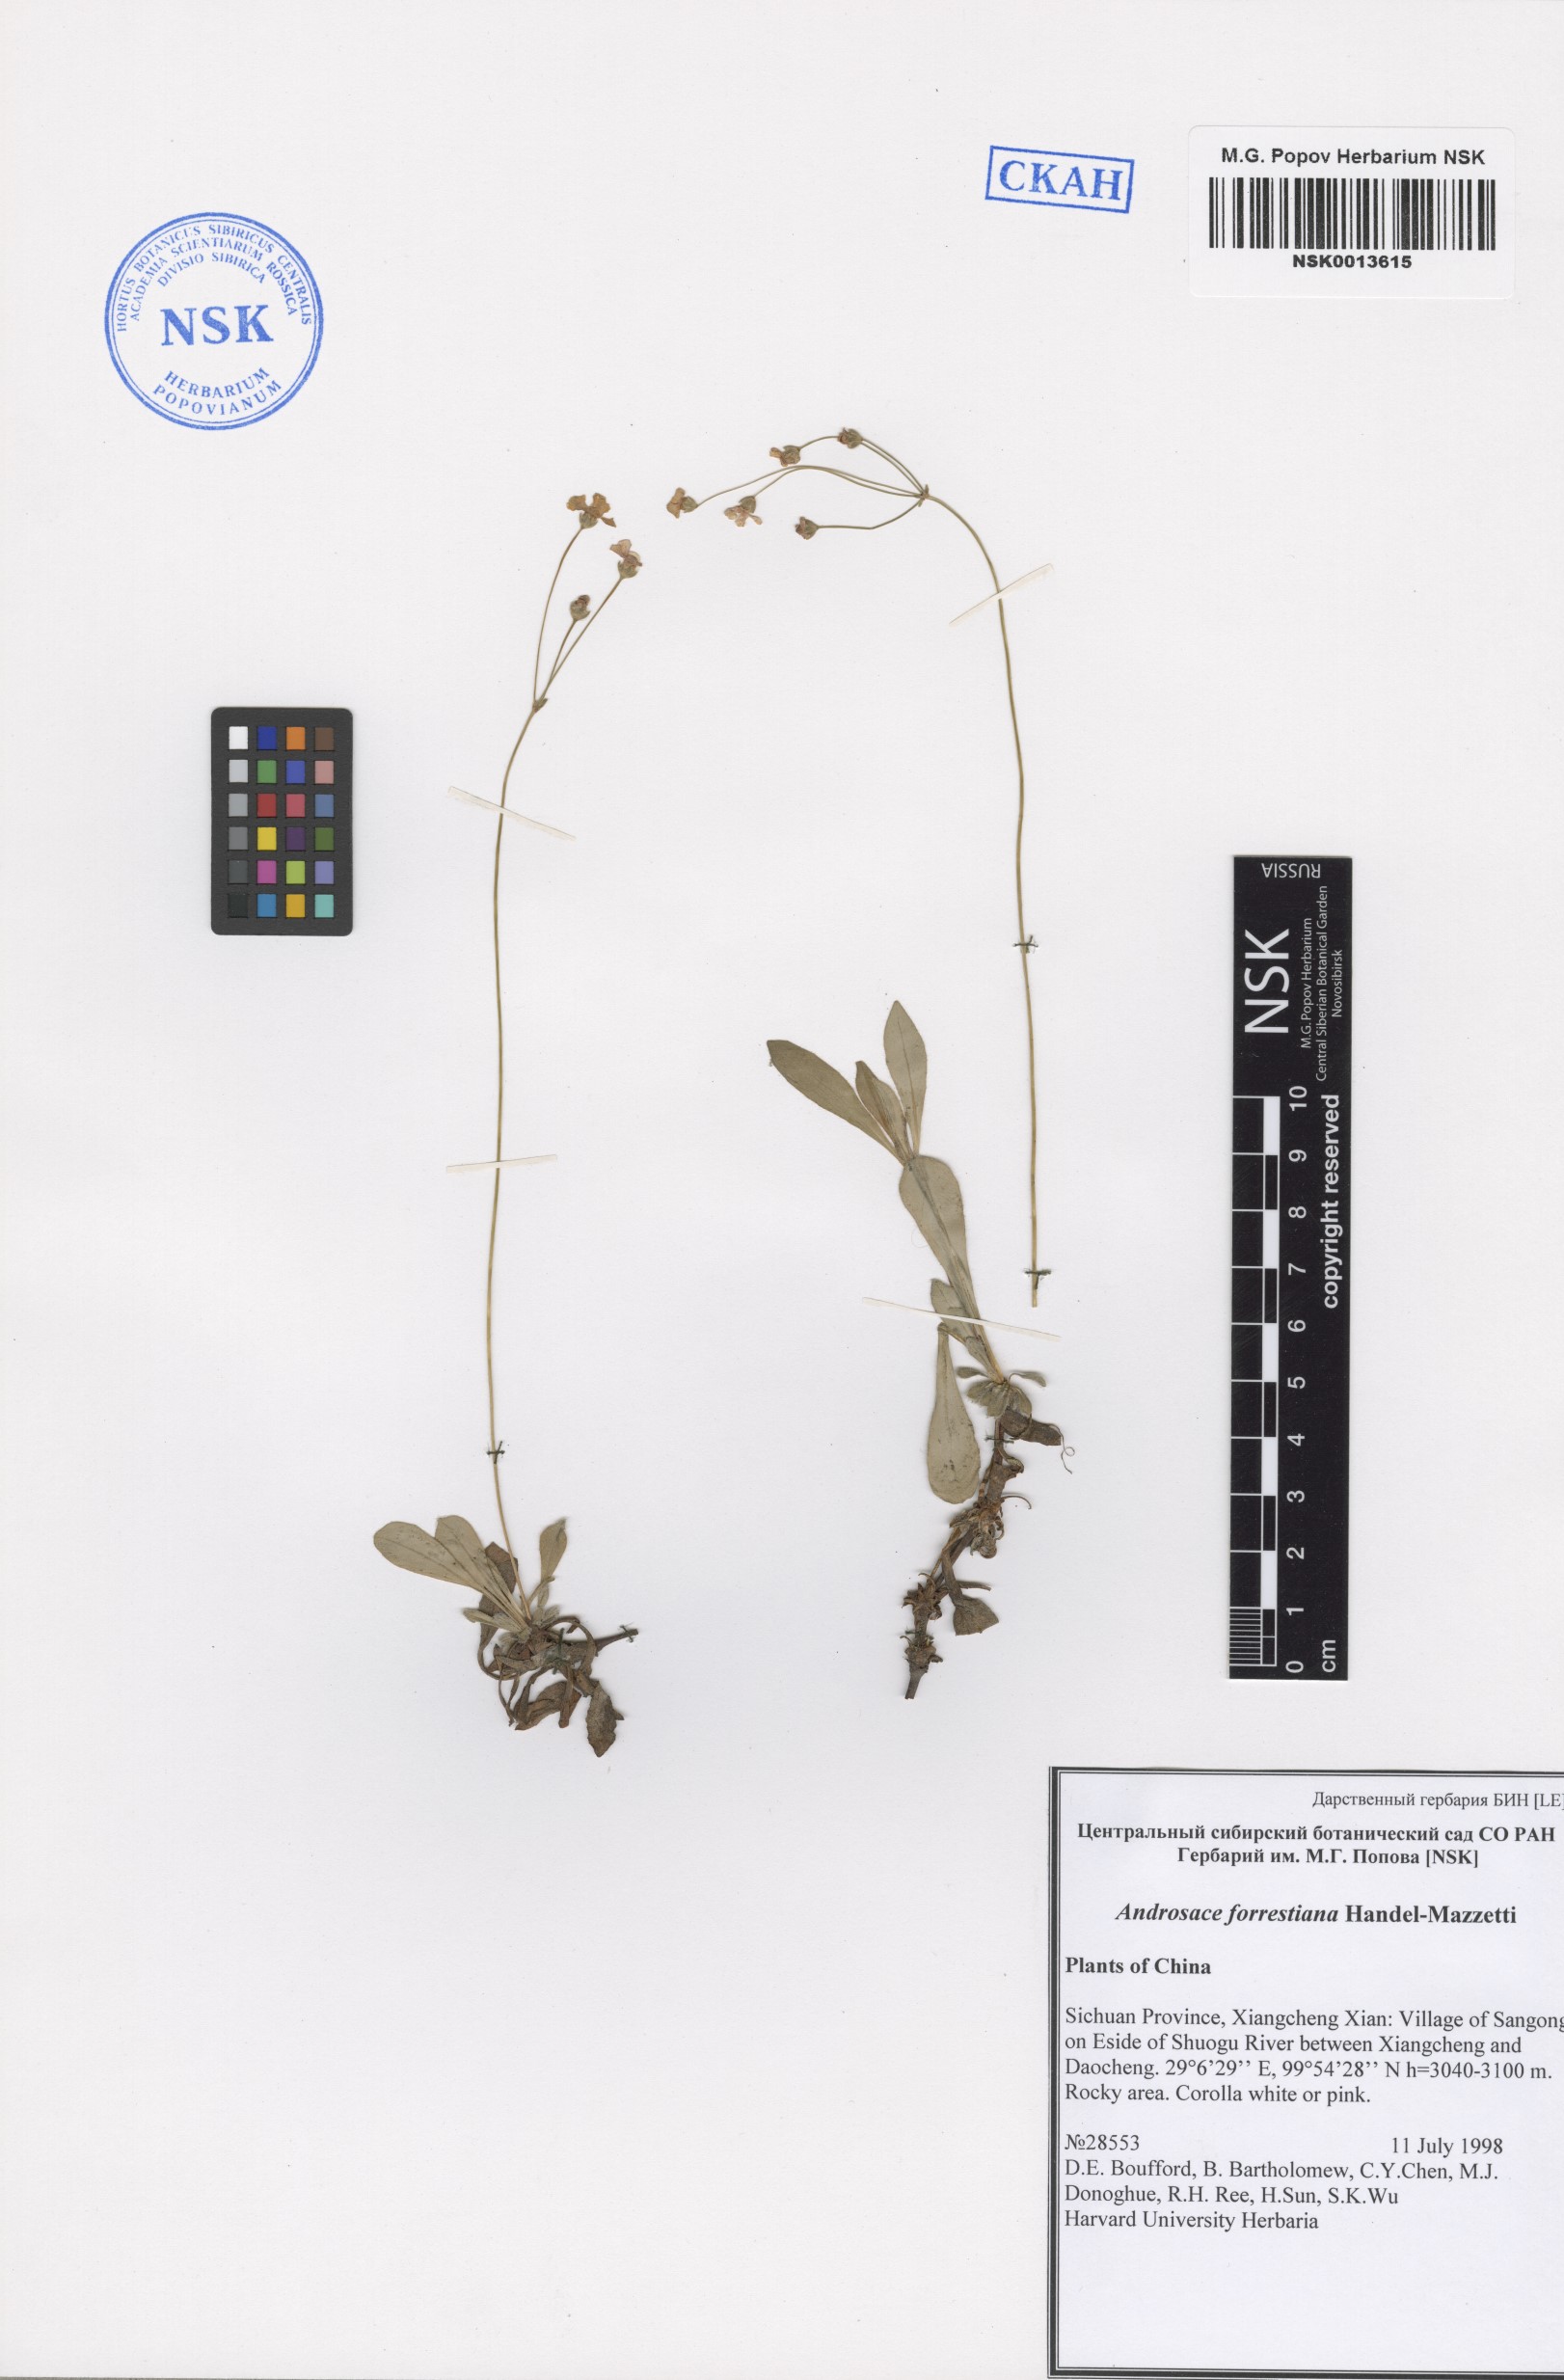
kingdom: Plantae
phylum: Tracheophyta
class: Magnoliopsida
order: Ericales
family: Primulaceae
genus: Androsace
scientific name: Androsace forrestiana
